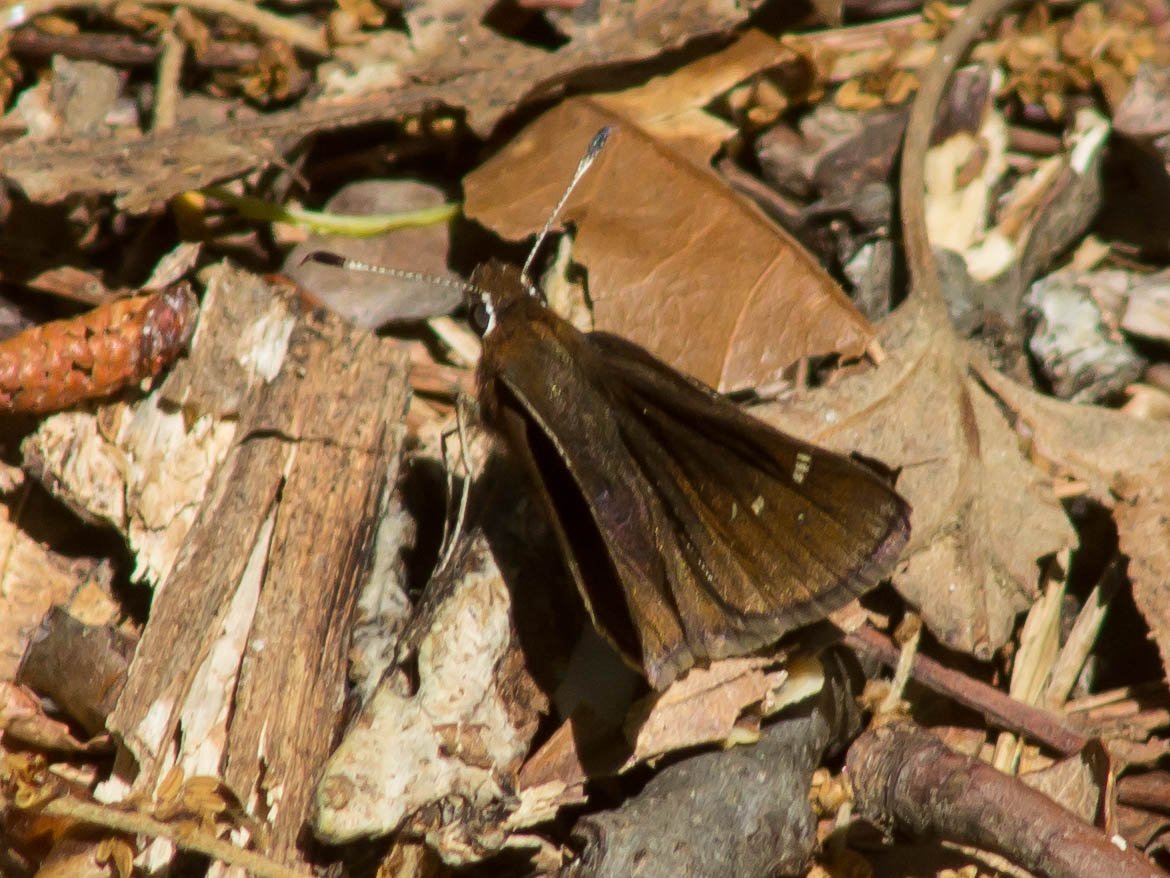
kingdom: Animalia
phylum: Arthropoda
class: Insecta
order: Lepidoptera
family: Hesperiidae
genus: Atrytonopsis
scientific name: Atrytonopsis hianna
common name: Dusted Skipper
